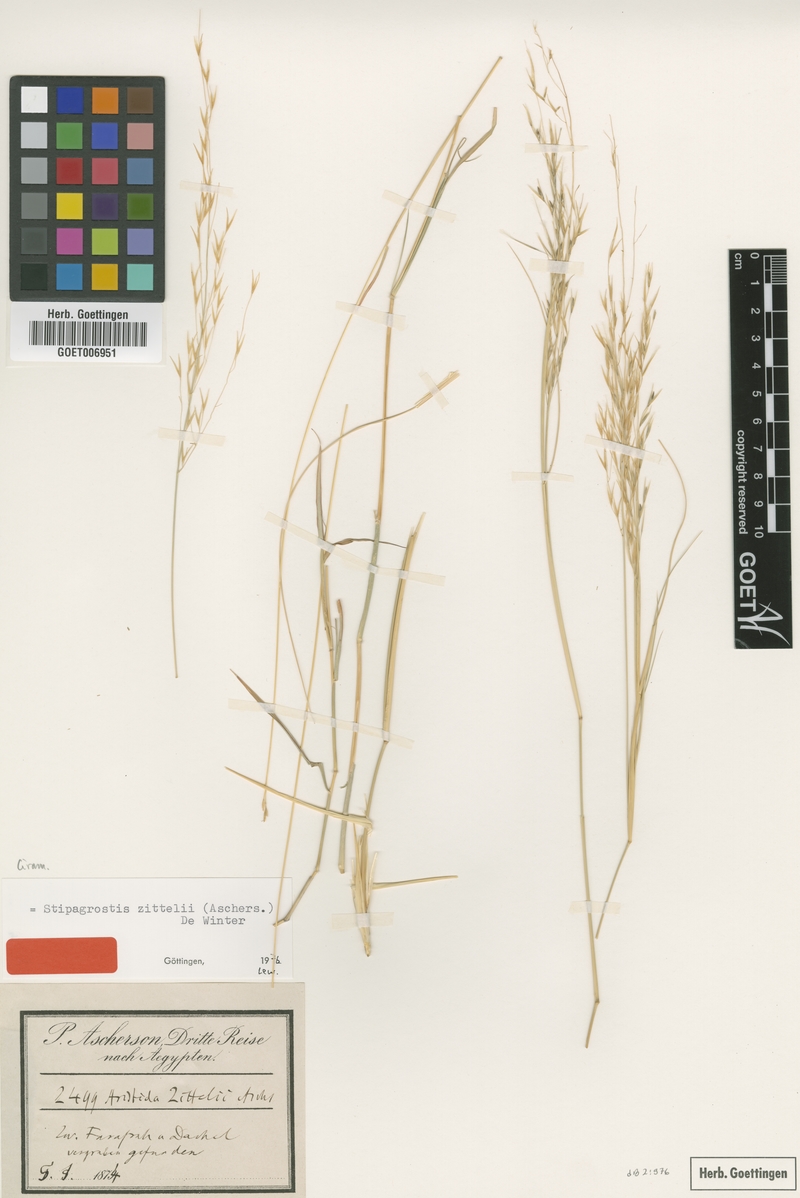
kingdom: Plantae
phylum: Tracheophyta
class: Liliopsida
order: Poales
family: Poaceae
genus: Stipagrostis
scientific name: Stipagrostis acutiflora
